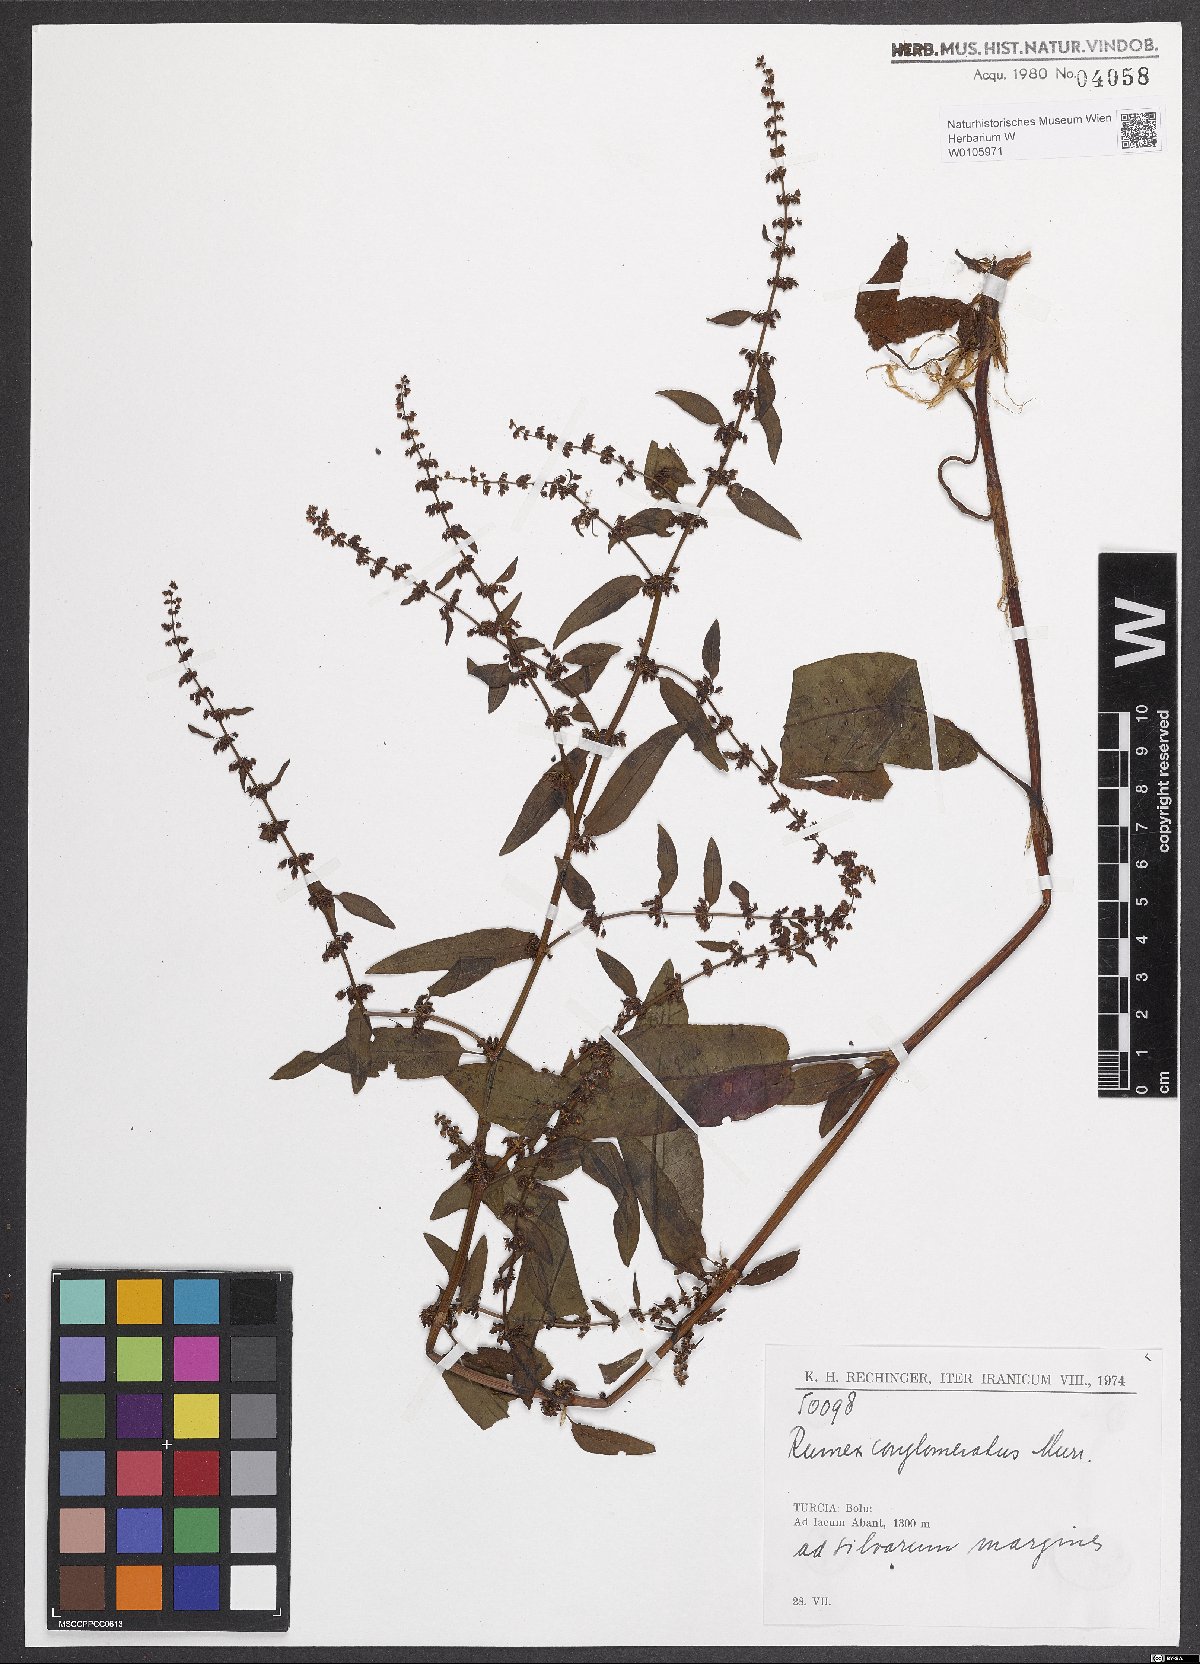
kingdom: Plantae
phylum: Tracheophyta
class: Magnoliopsida
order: Caryophyllales
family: Polygonaceae
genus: Rumex
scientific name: Rumex conglomeratus
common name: Clustered dock
